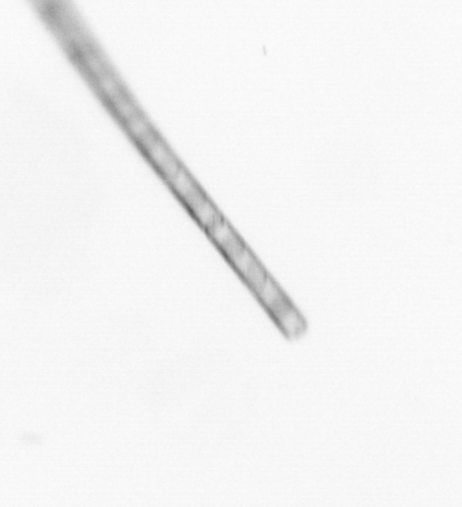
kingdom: Chromista
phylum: Ochrophyta
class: Bacillariophyceae
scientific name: Bacillariophyceae
